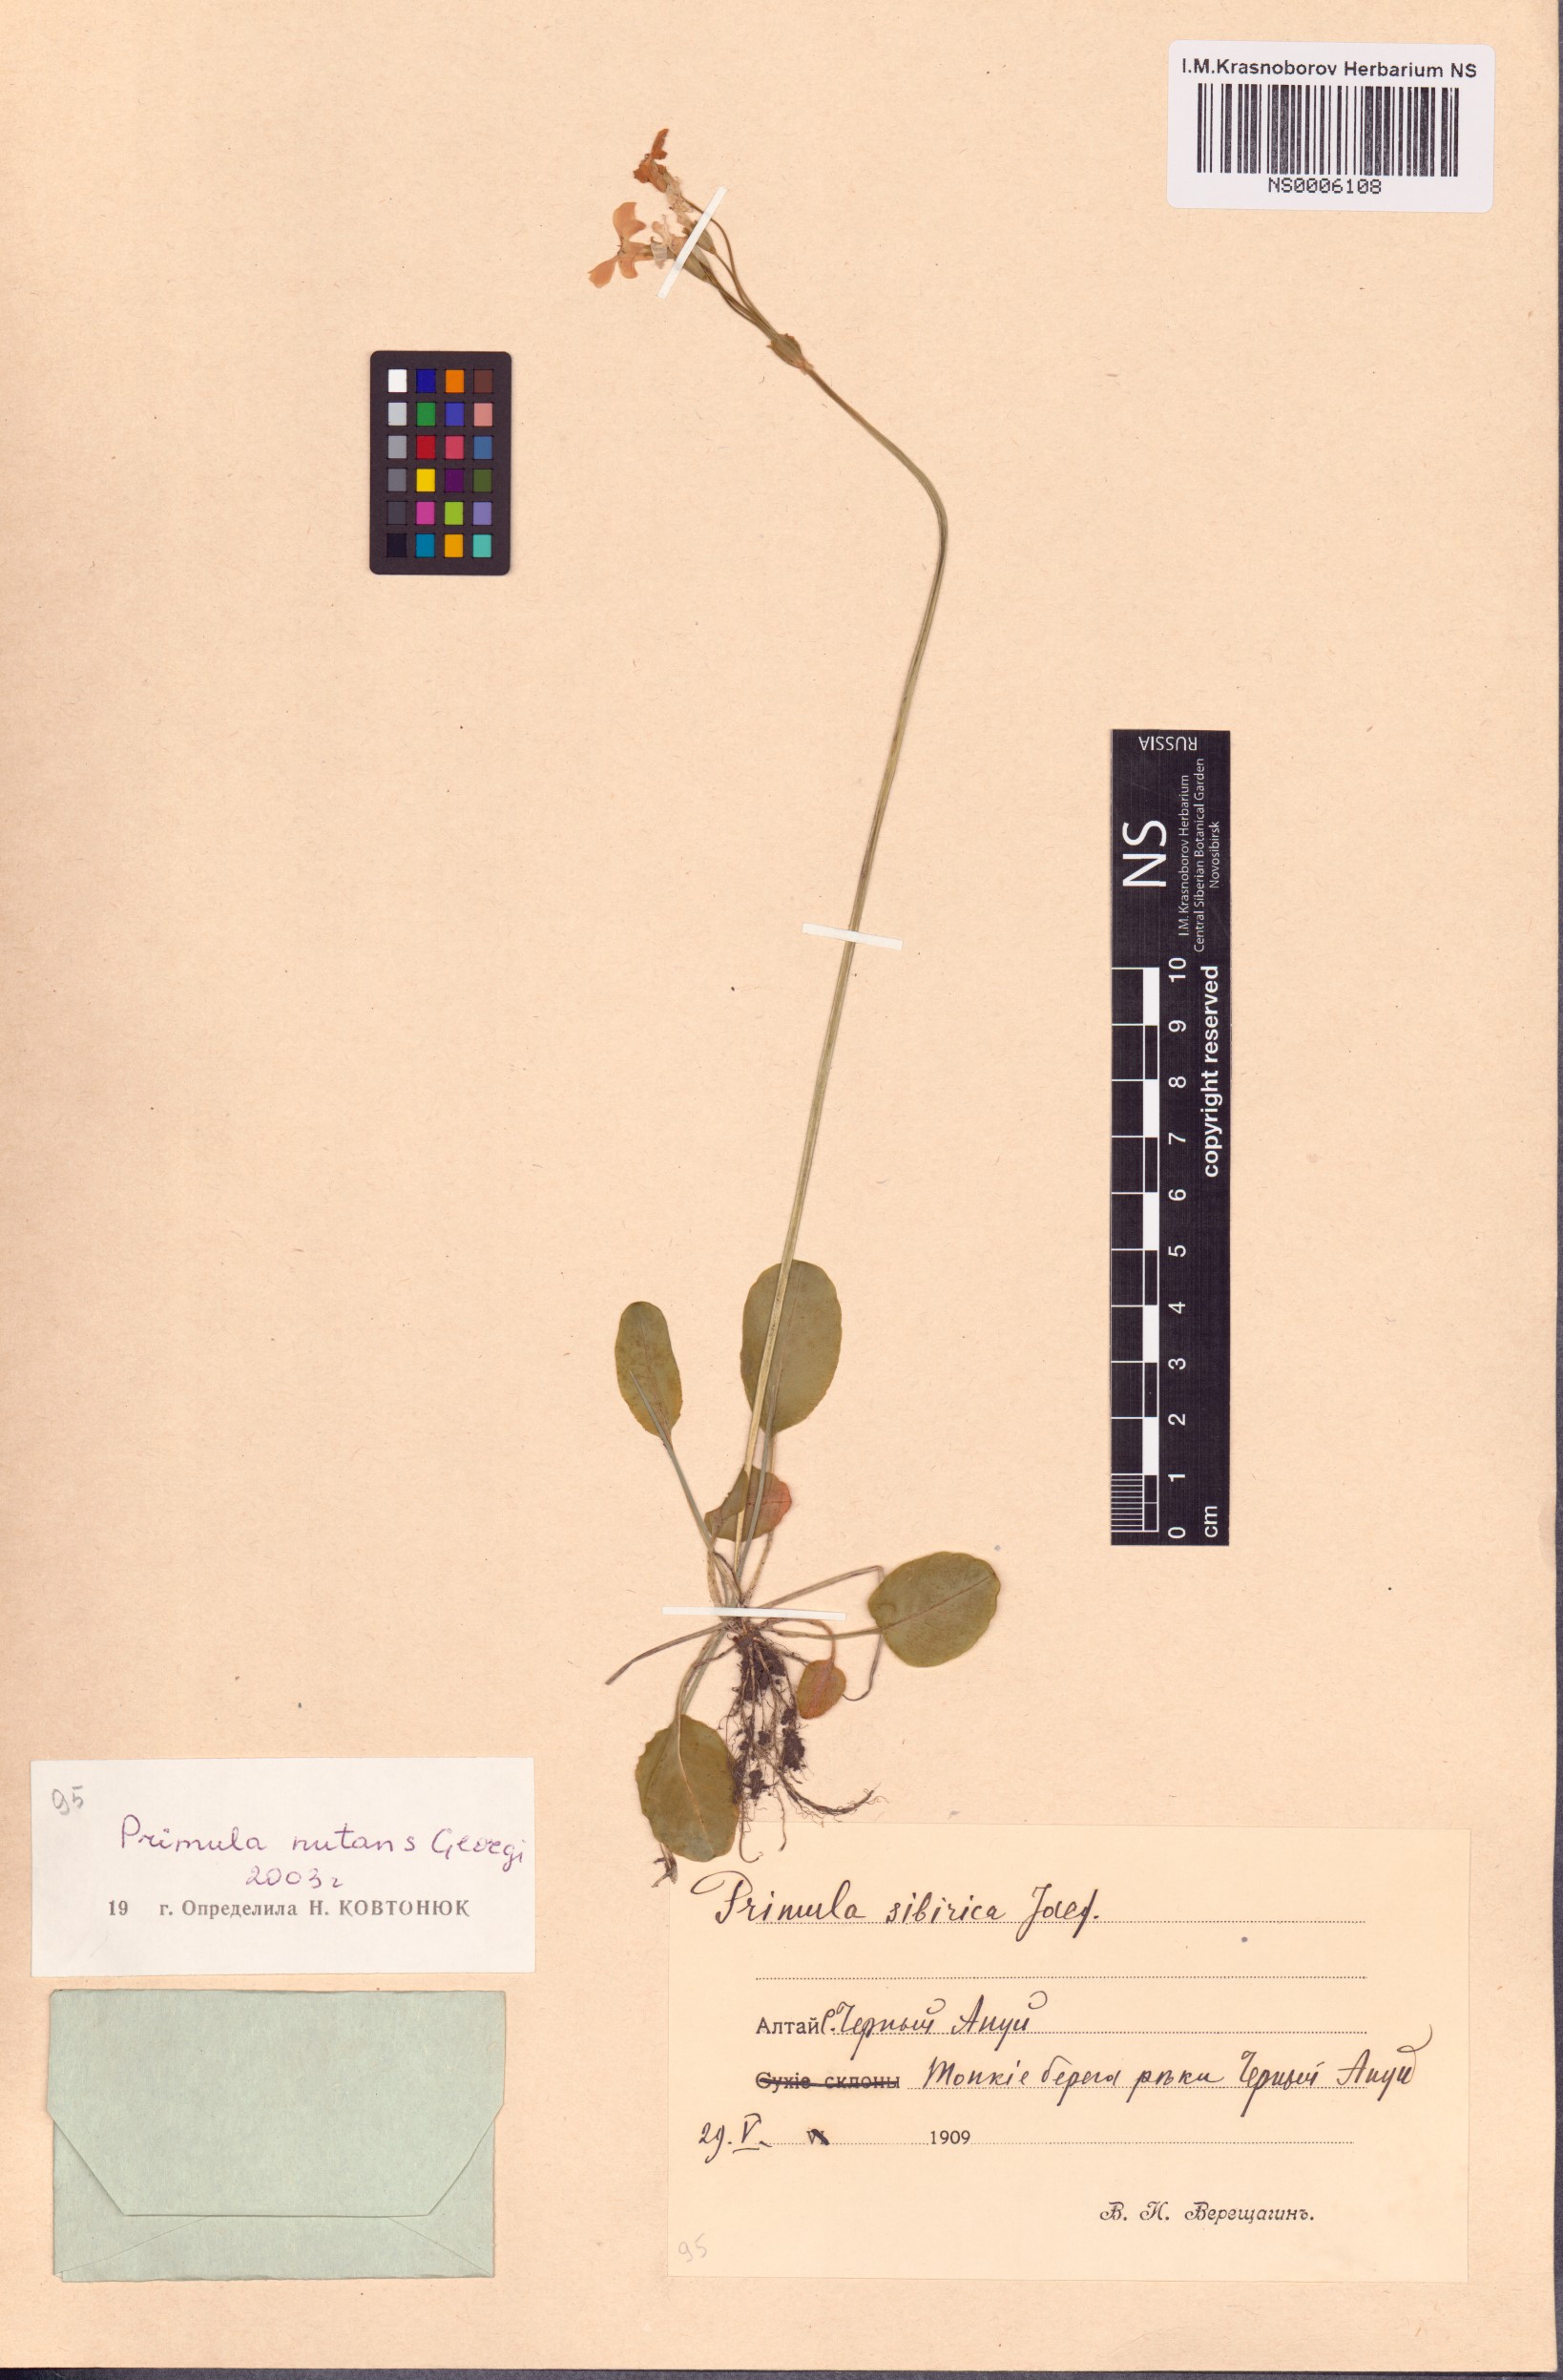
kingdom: Plantae
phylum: Tracheophyta
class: Magnoliopsida
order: Ericales
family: Primulaceae
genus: Primula
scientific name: Primula nutans
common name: Siberian primrose
